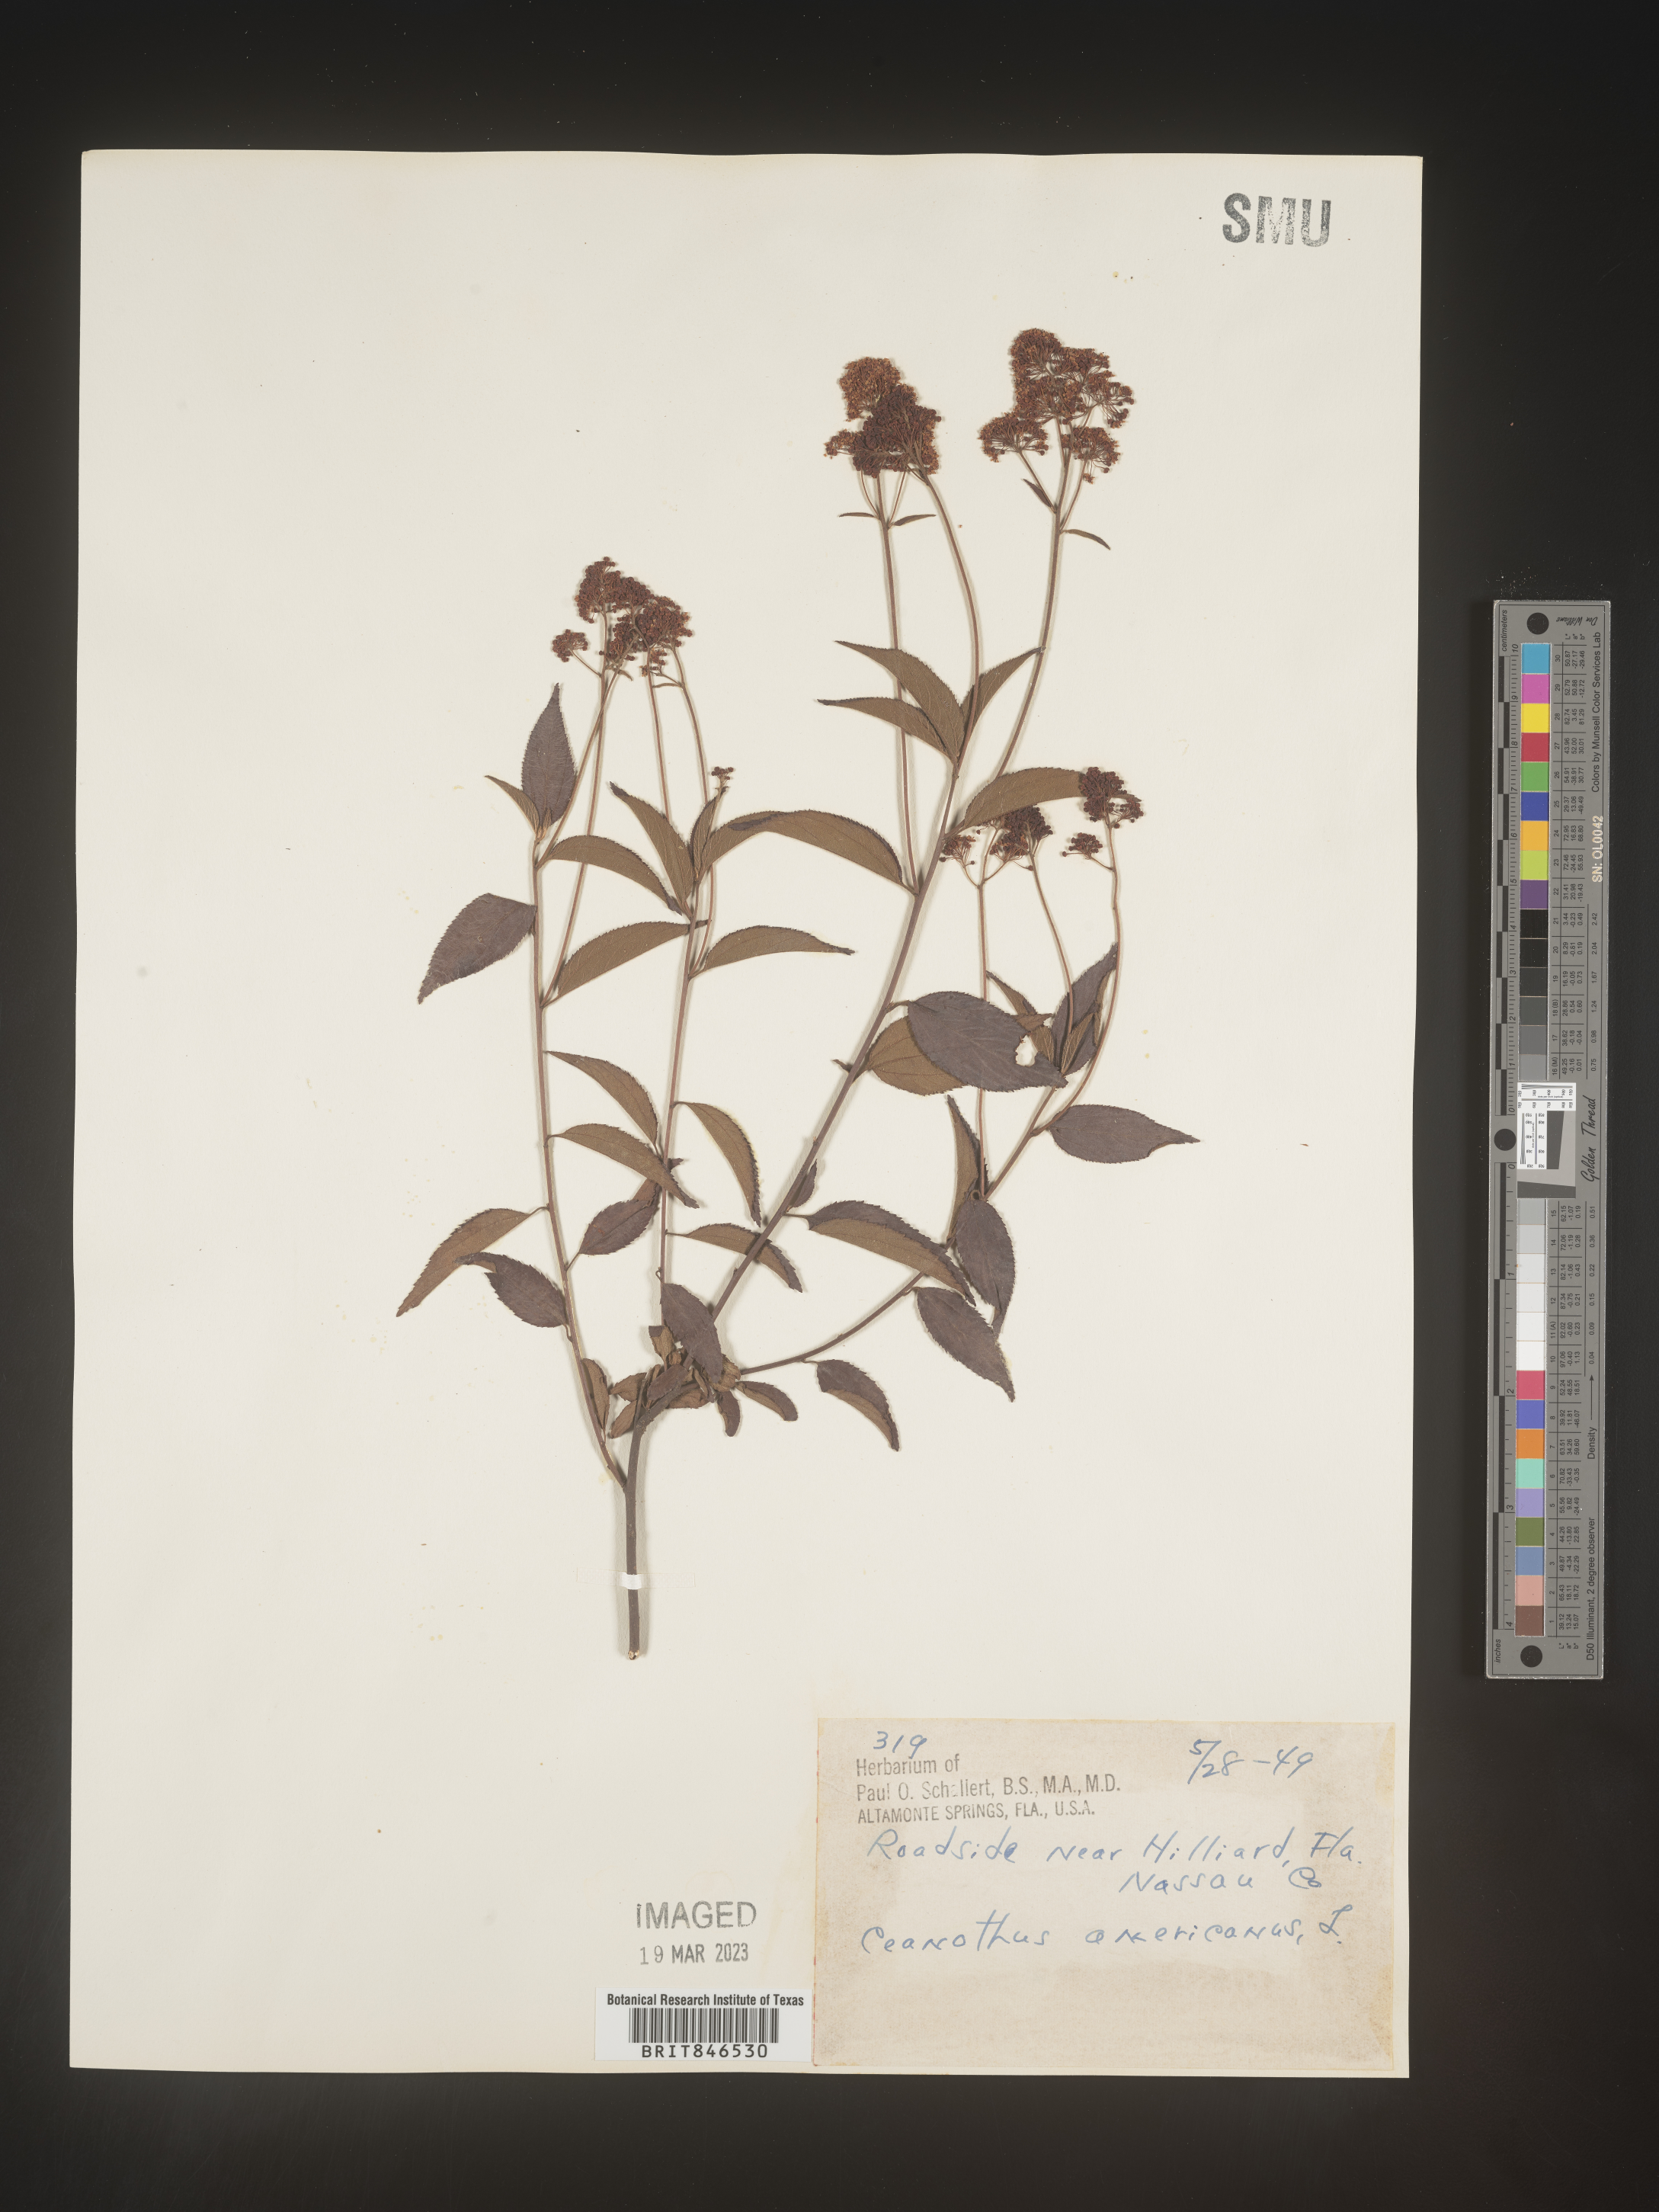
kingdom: Plantae
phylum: Tracheophyta
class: Magnoliopsida
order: Rosales
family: Rhamnaceae
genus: Ceanothus
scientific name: Ceanothus americanus
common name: Redroot
